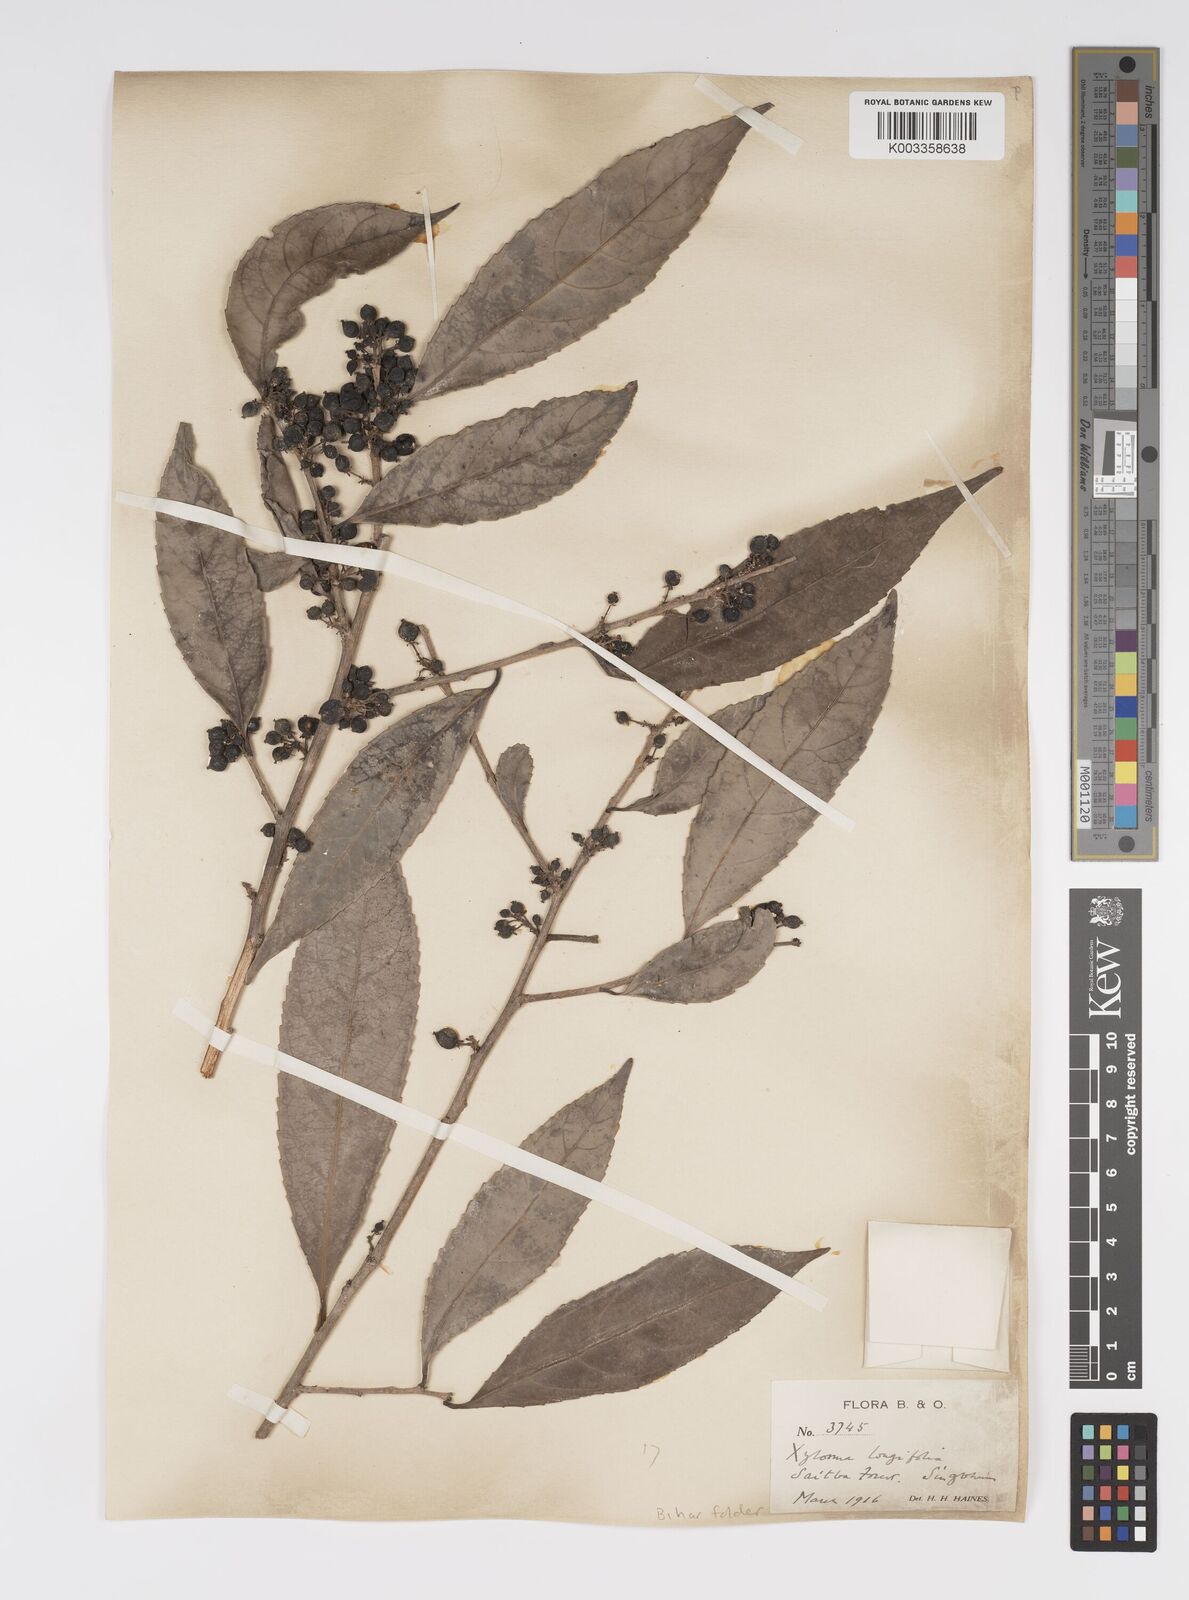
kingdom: Plantae
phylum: Tracheophyta
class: Magnoliopsida
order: Malpighiales
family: Salicaceae
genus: Xylosma
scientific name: Xylosma longifolia
